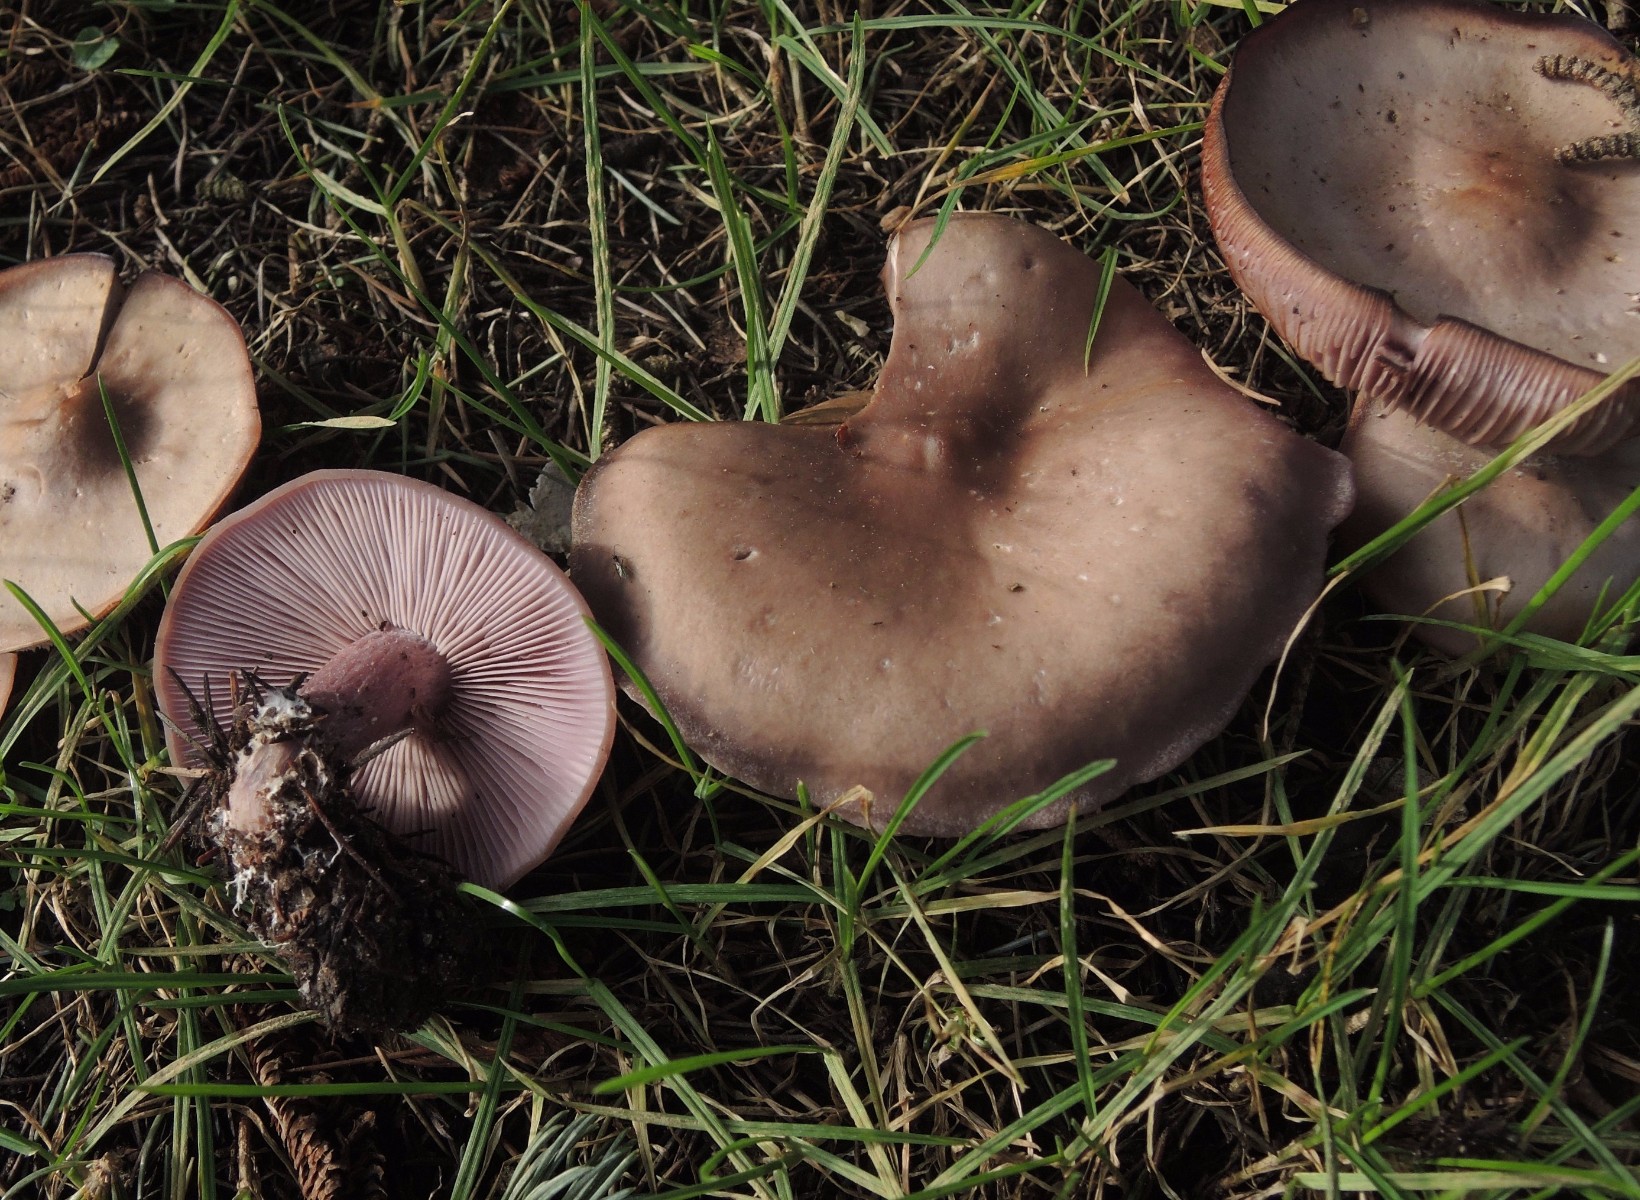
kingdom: Fungi
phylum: Basidiomycota
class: Agaricomycetes
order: Agaricales
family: Tricholomataceae
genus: Lepista
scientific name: Lepista nuda
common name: violet hekseringshat
